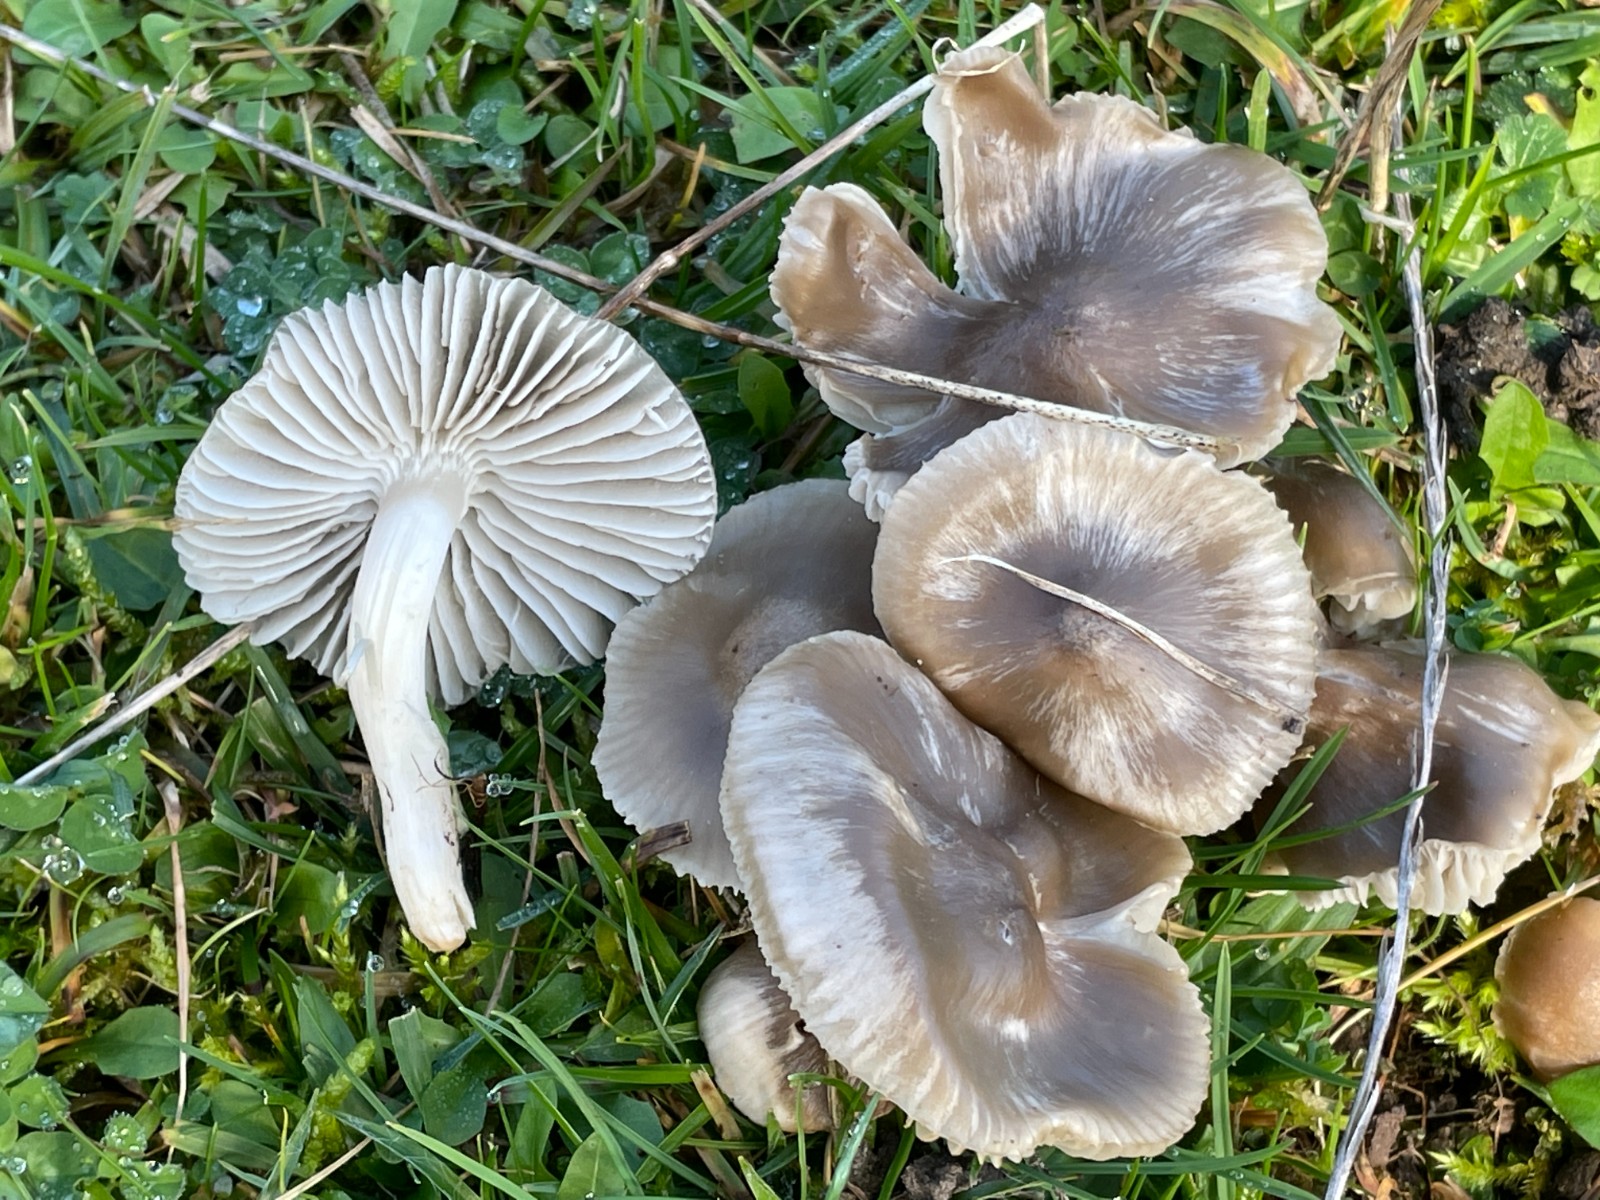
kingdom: Fungi
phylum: Basidiomycota
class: Agaricomycetes
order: Agaricales
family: Hygrophoraceae
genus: Cuphophyllus
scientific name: Cuphophyllus fornicatus
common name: gråbrun vokshat
